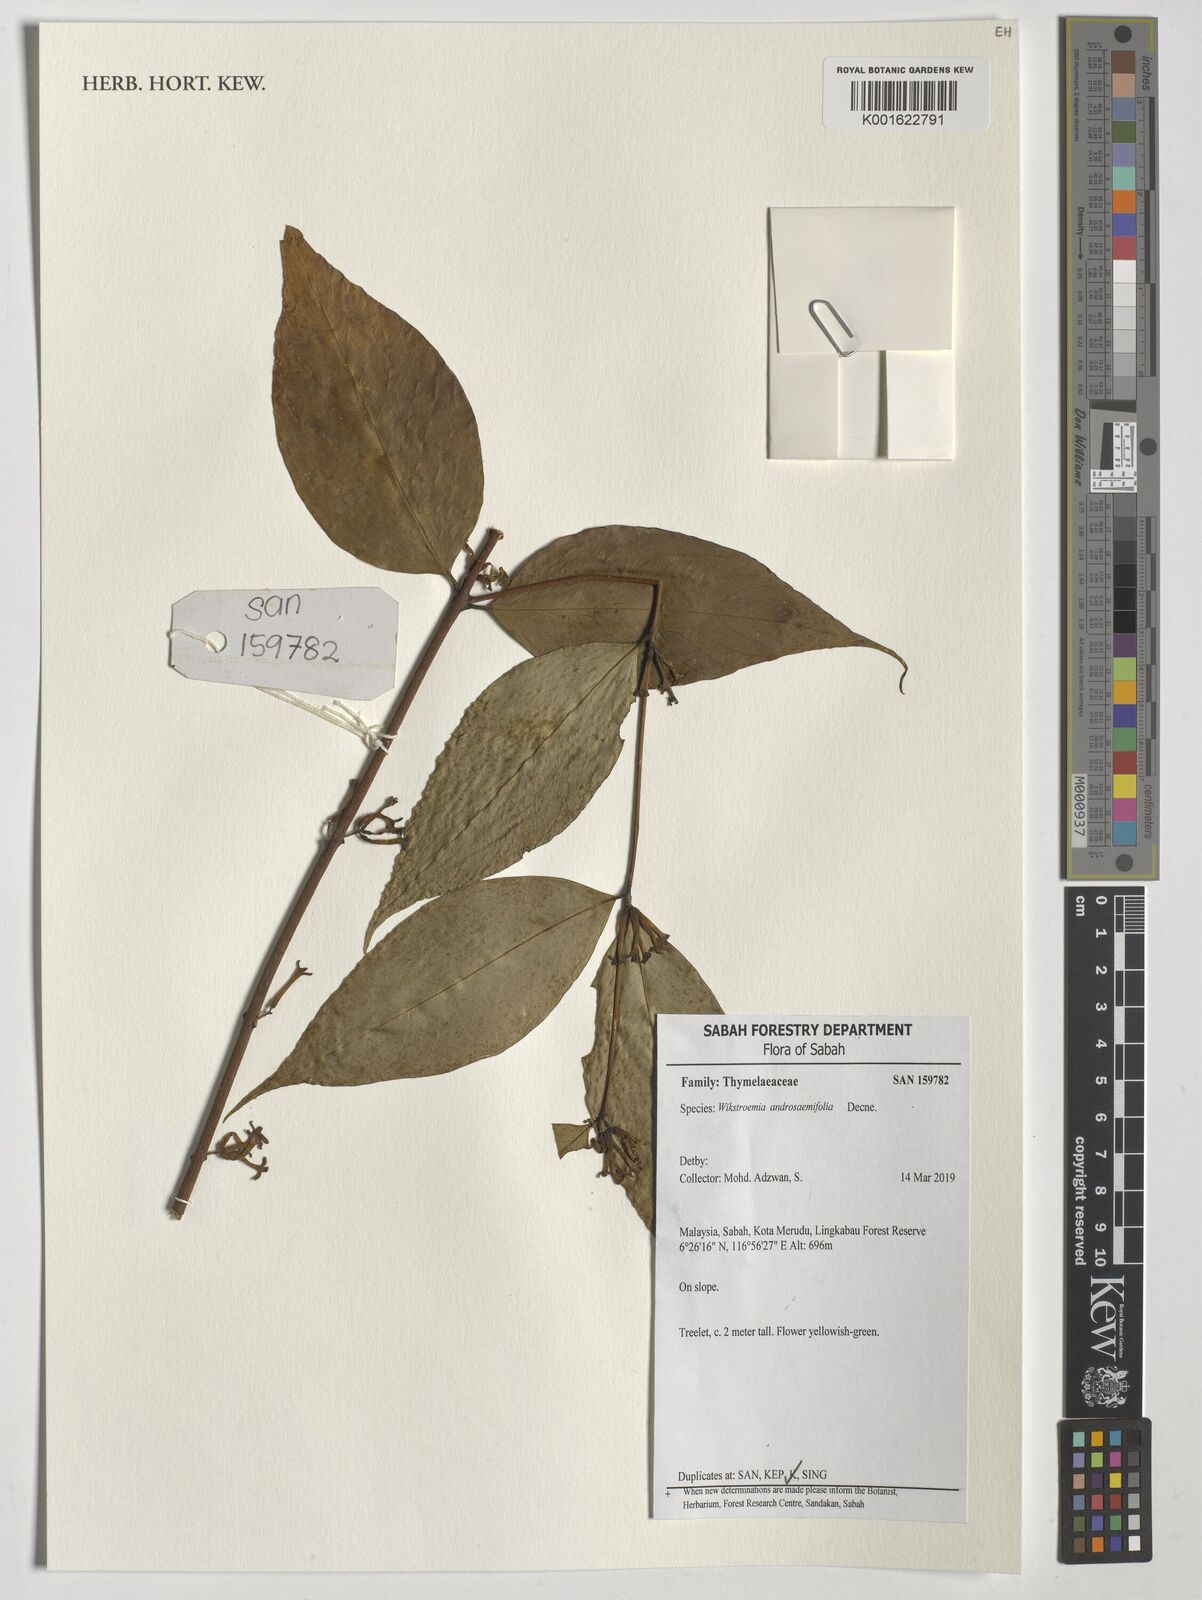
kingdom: Plantae
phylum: Tracheophyta
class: Magnoliopsida
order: Malvales
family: Thymelaeaceae
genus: Wikstroemia
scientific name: Wikstroemia androsaemifolia
